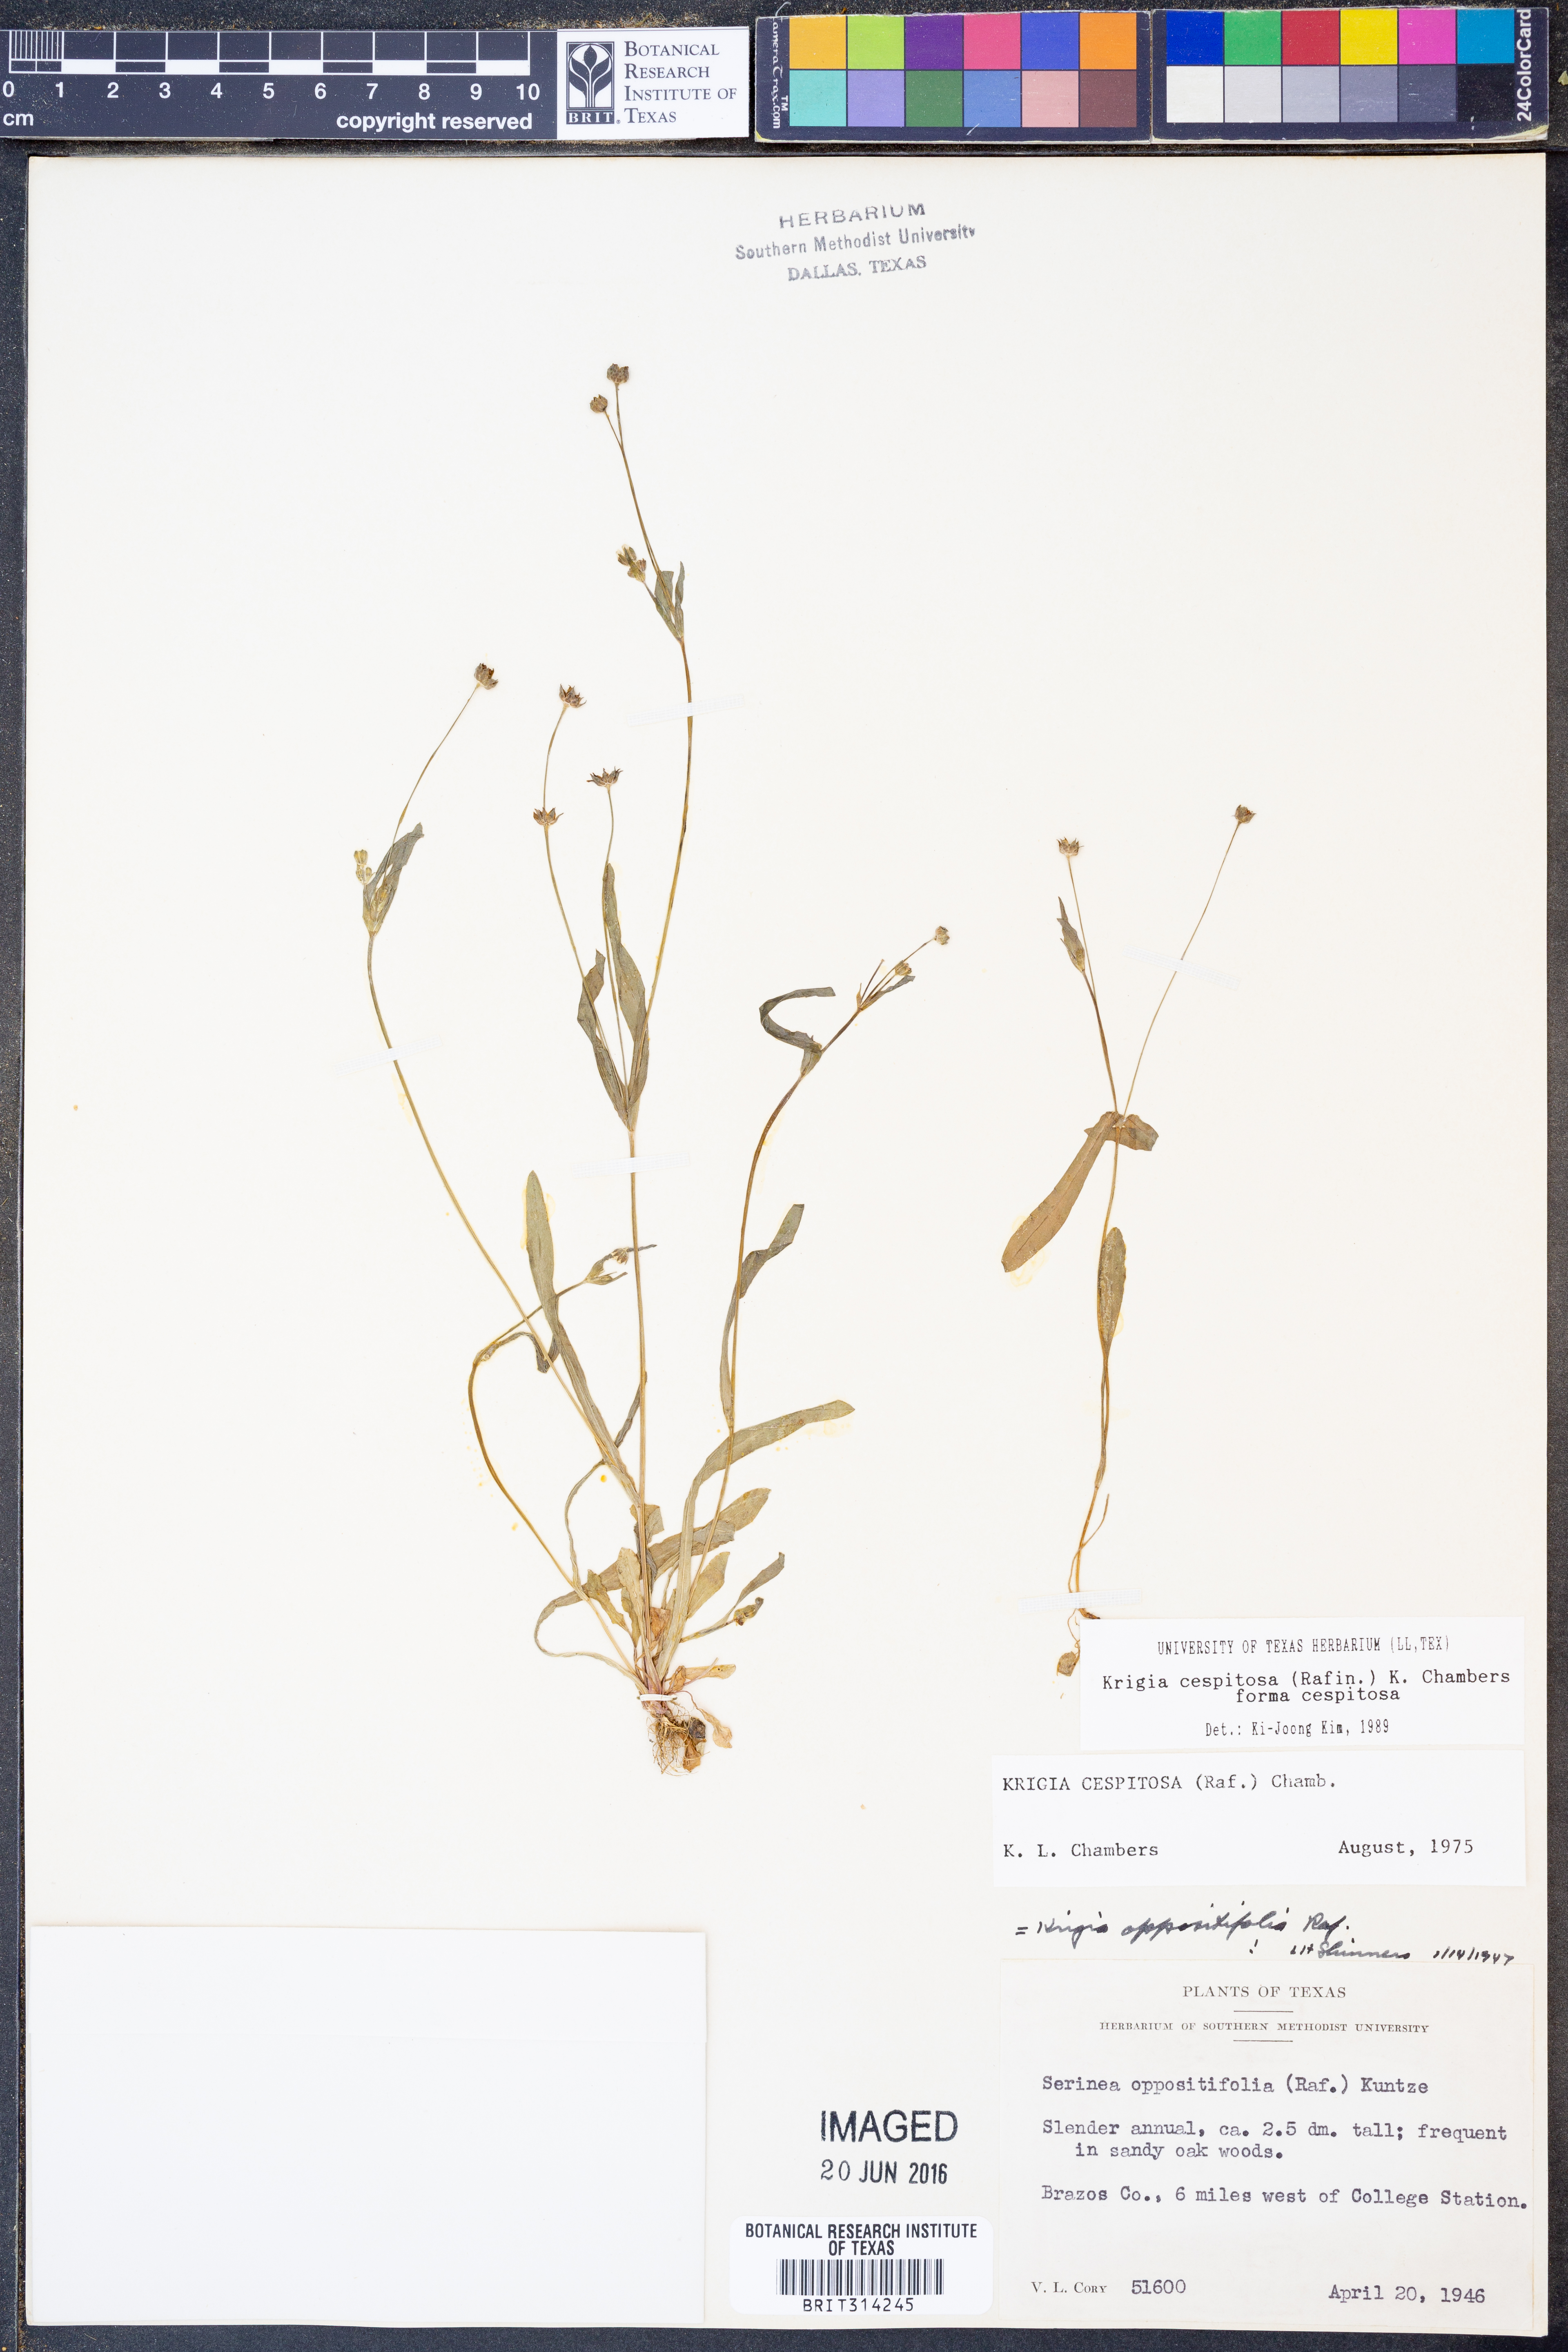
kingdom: Plantae
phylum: Tracheophyta
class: Magnoliopsida
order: Asterales
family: Asteraceae
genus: Krigia
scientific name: Krigia cespitosa
